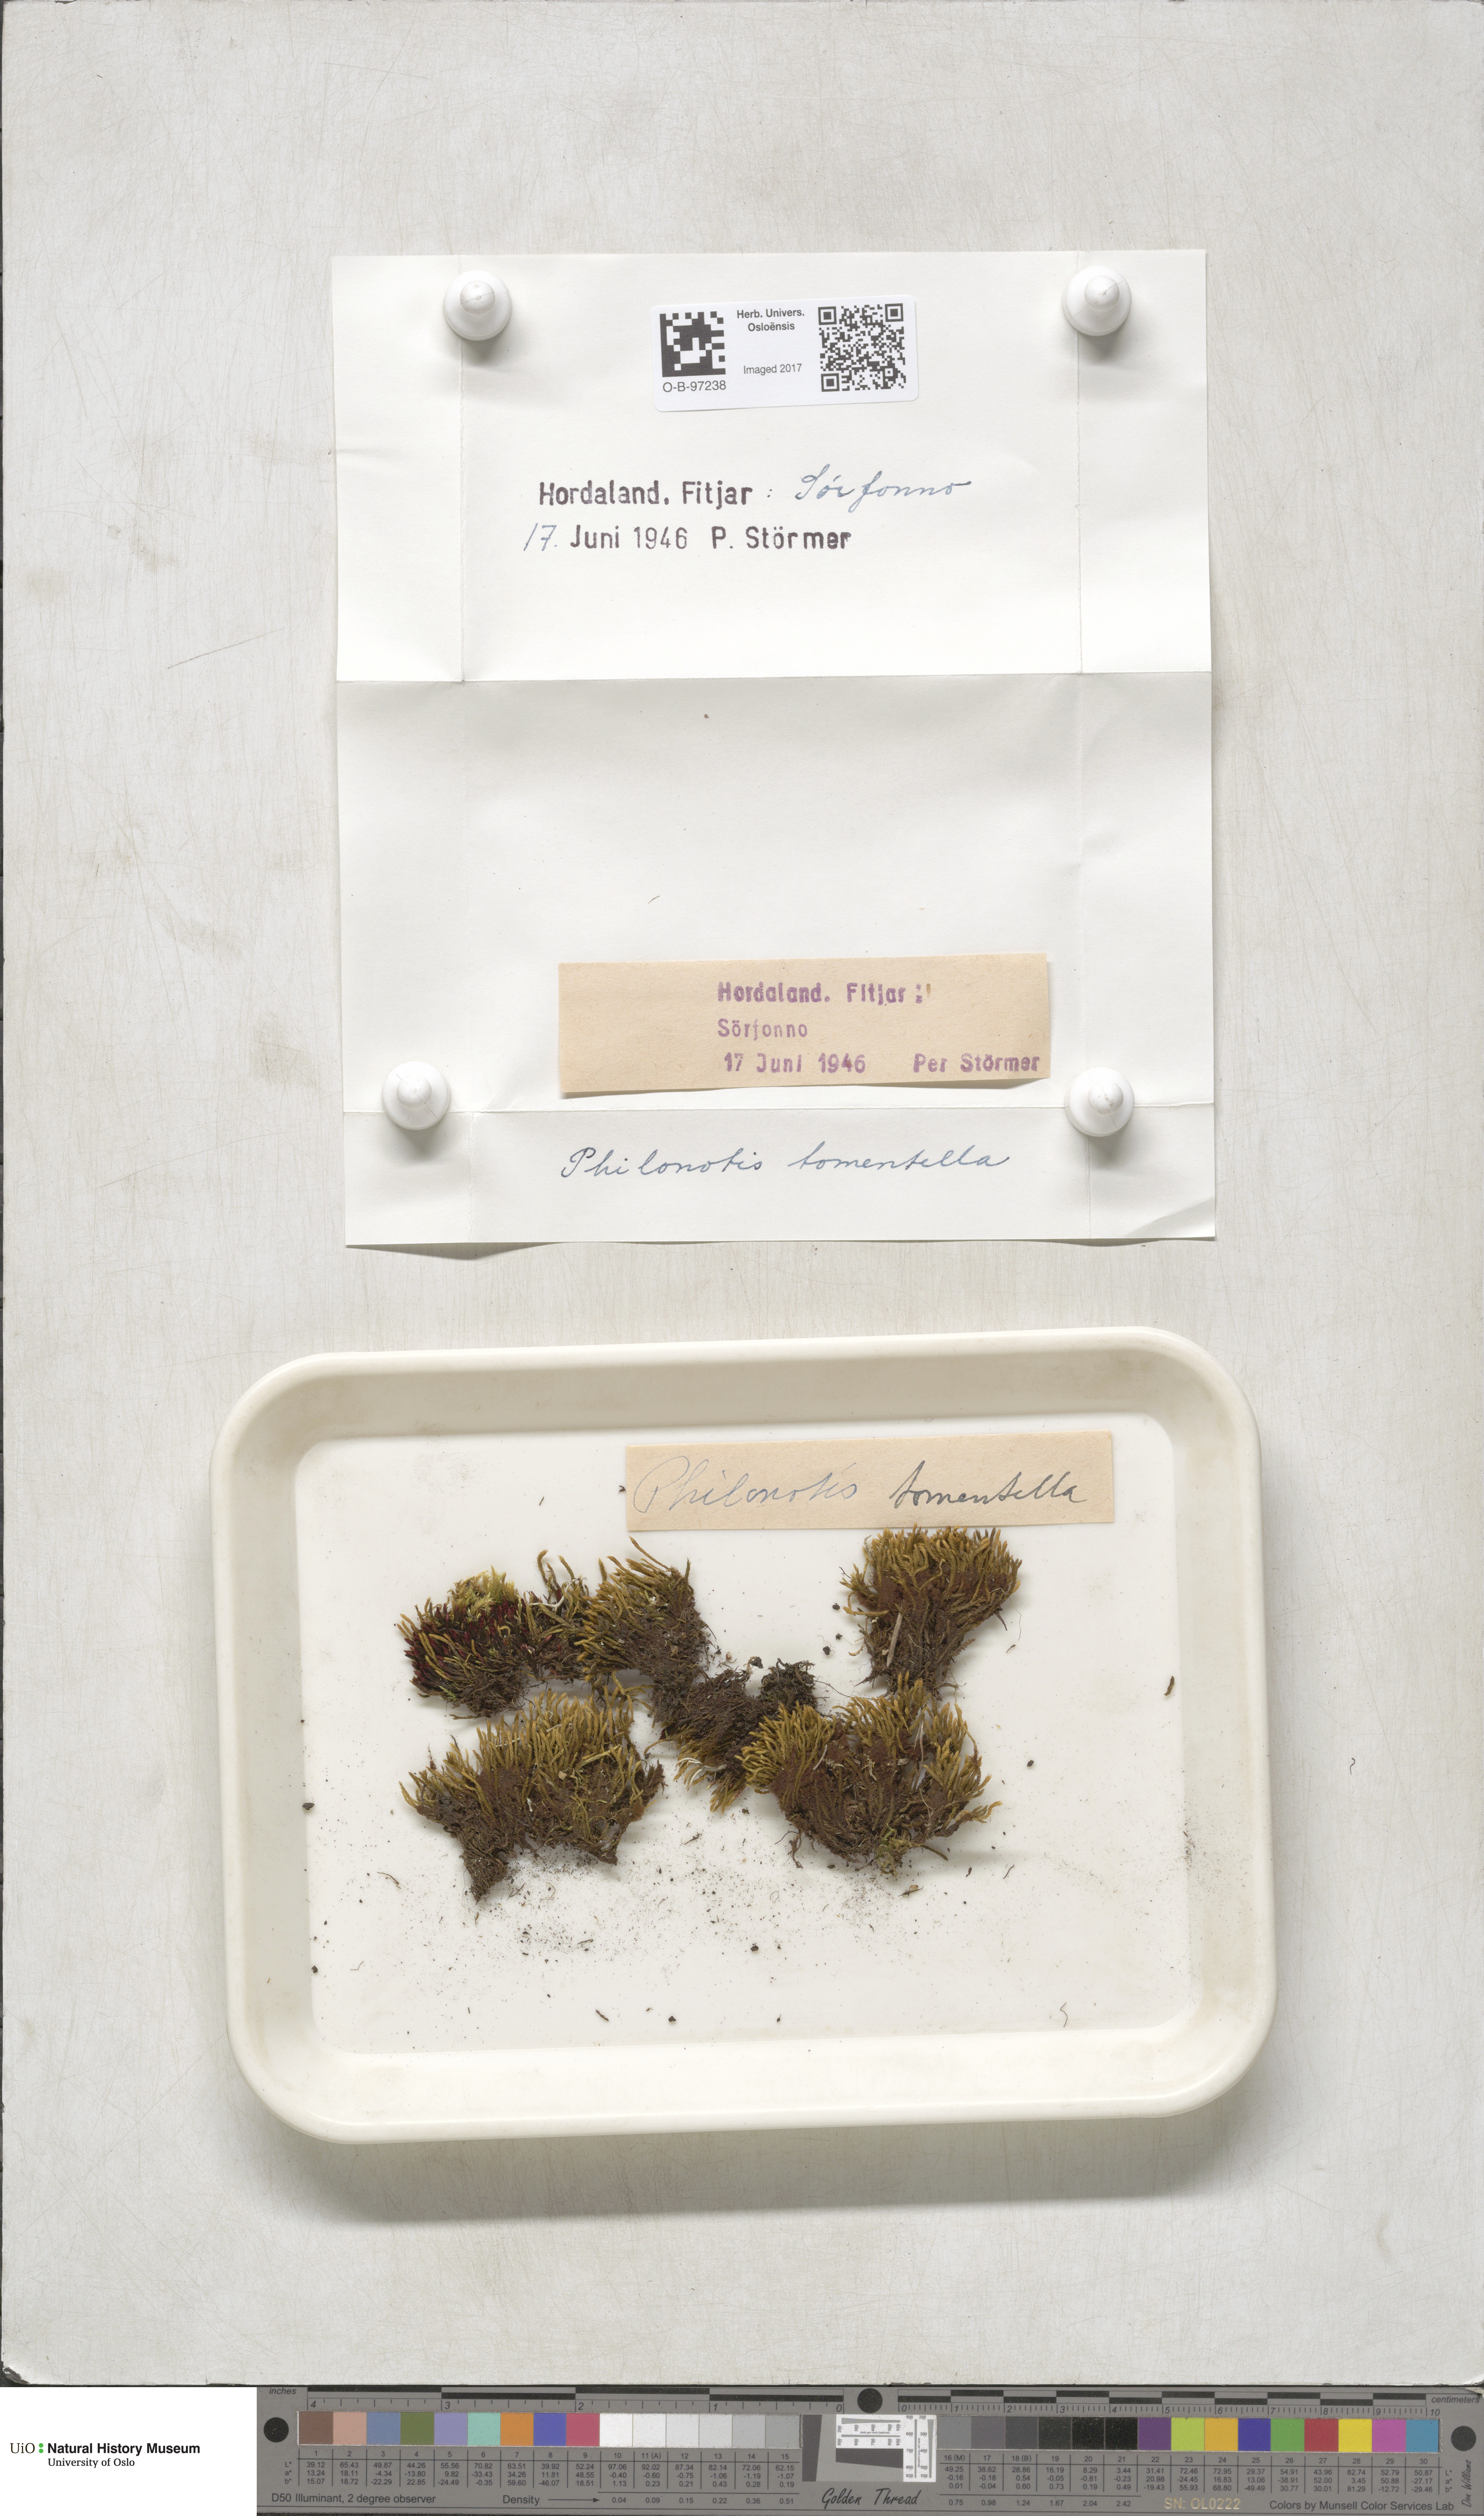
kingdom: Plantae
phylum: Bryophyta
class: Bryopsida
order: Bartramiales
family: Bartramiaceae
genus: Philonotis
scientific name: Philonotis tomentella
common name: Woolly apple moss
